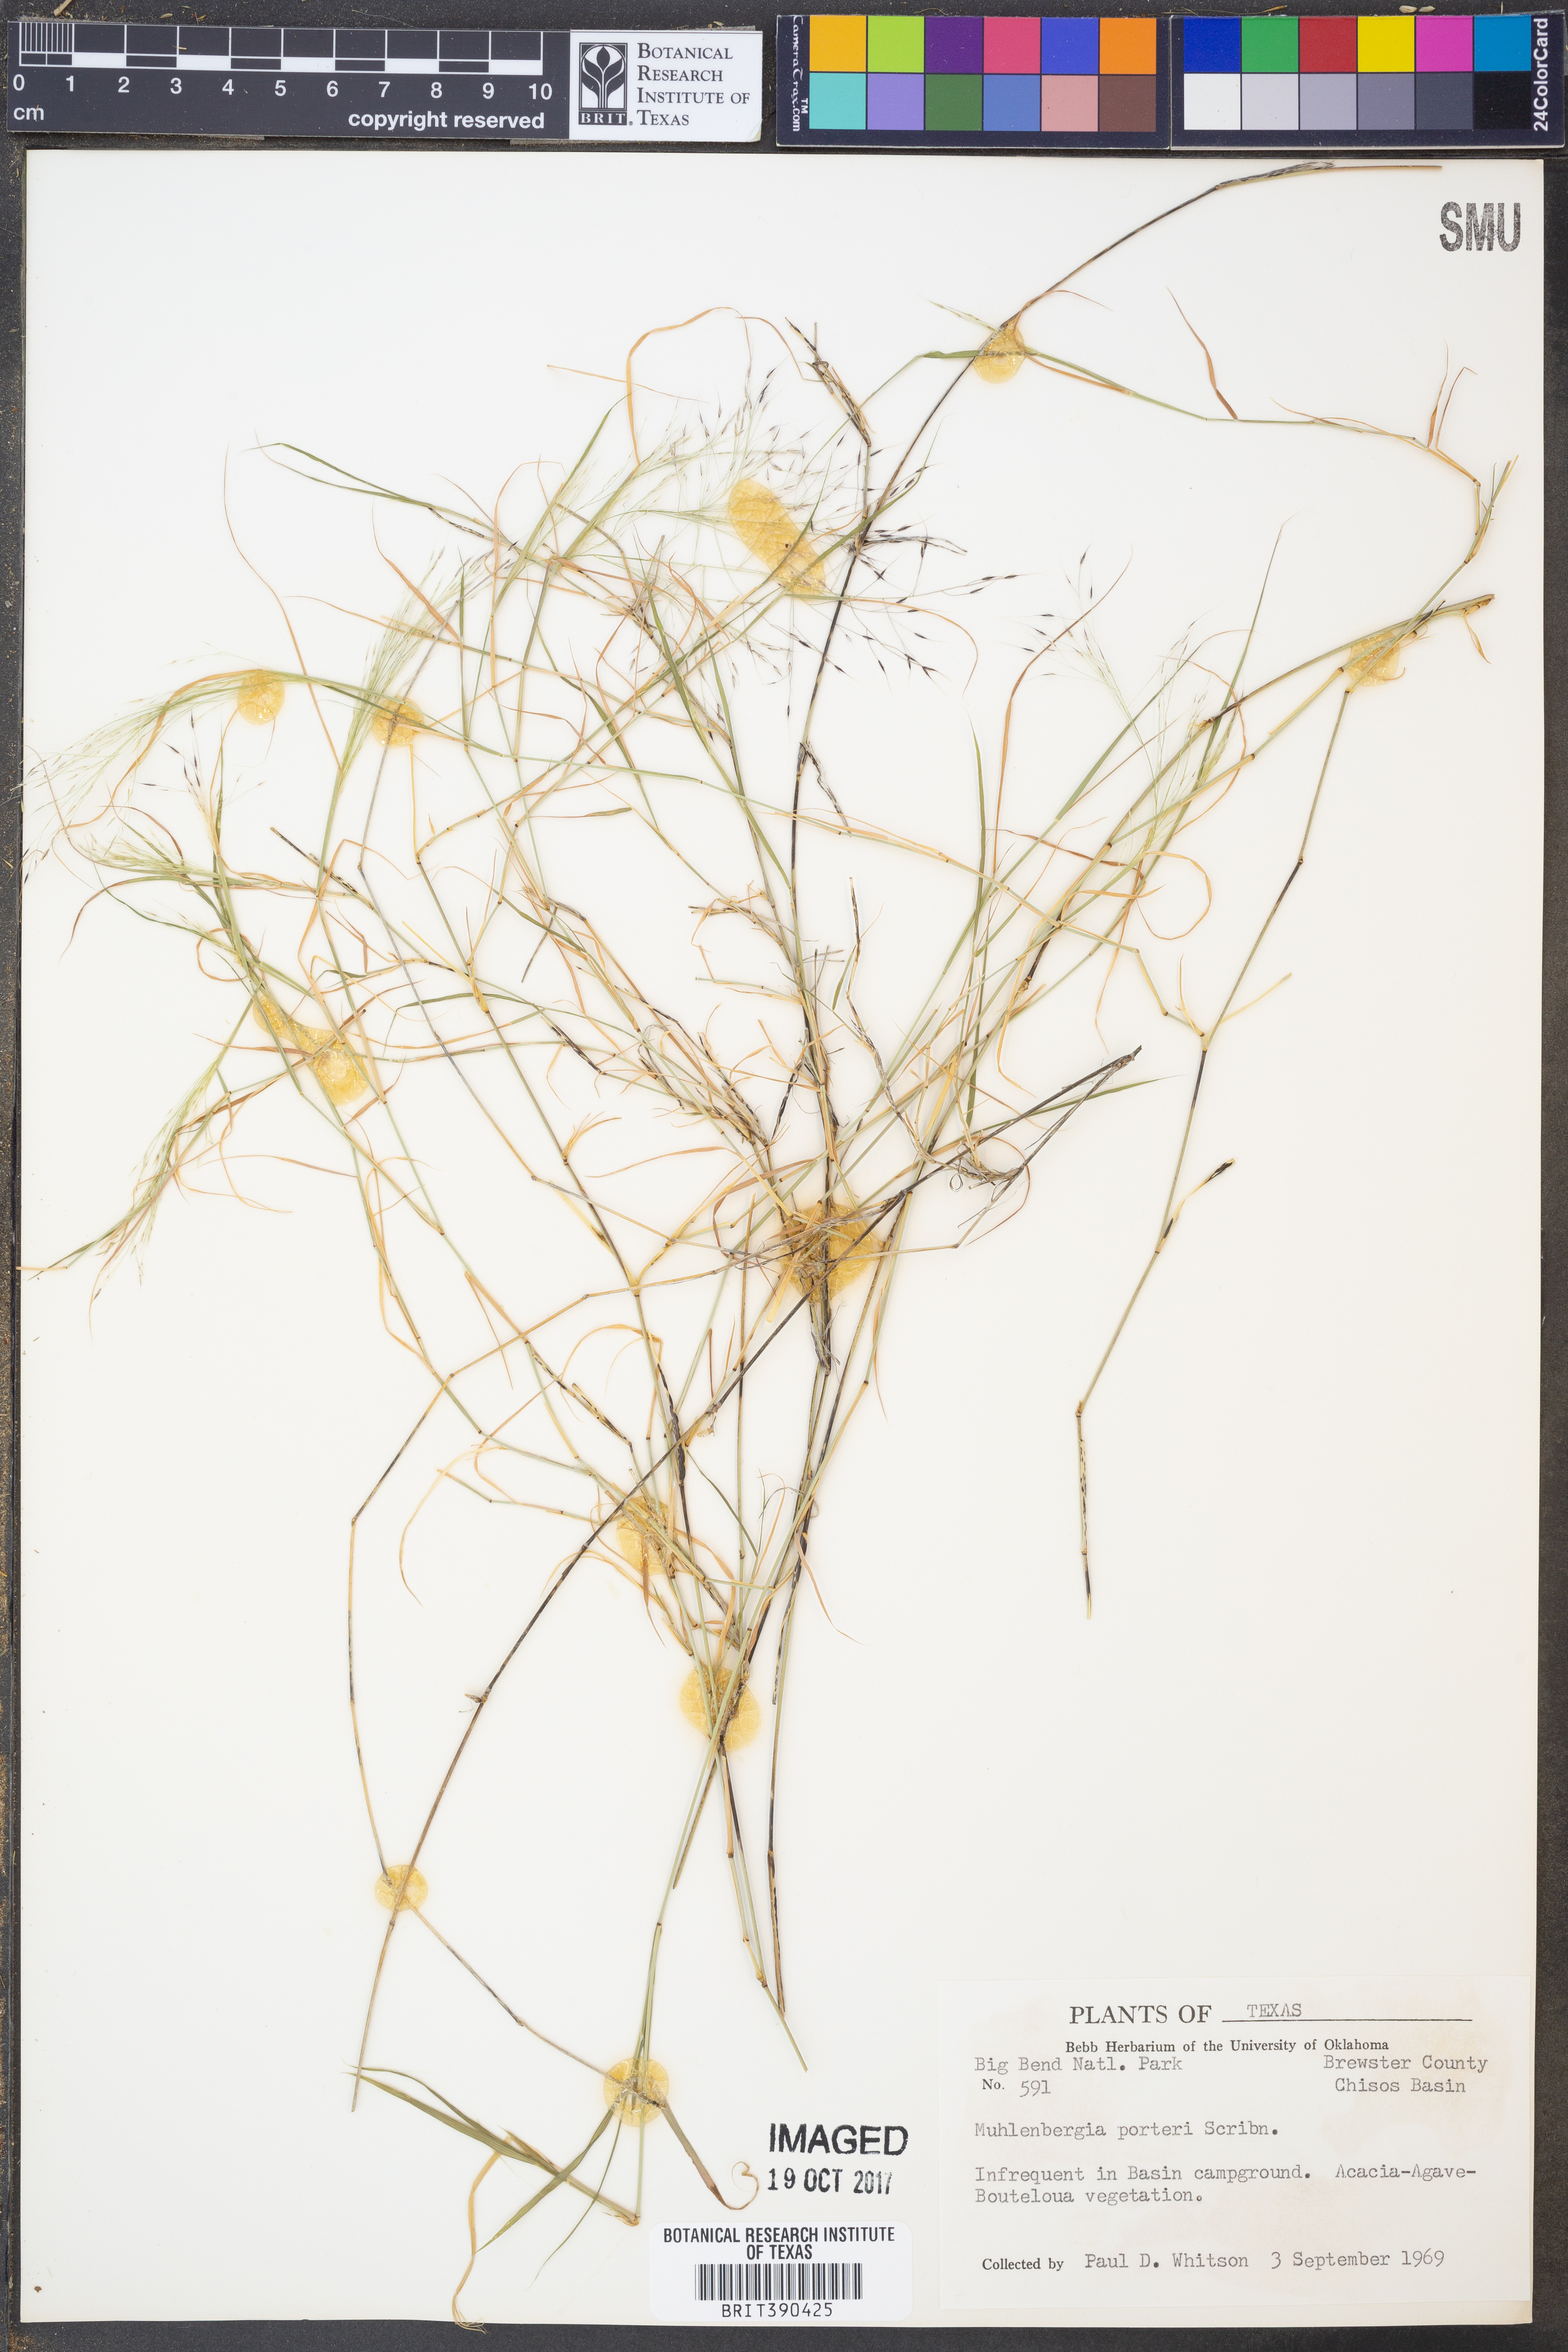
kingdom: Plantae
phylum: Tracheophyta
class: Liliopsida
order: Poales
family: Poaceae
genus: Muhlenbergia
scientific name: Muhlenbergia porteri
